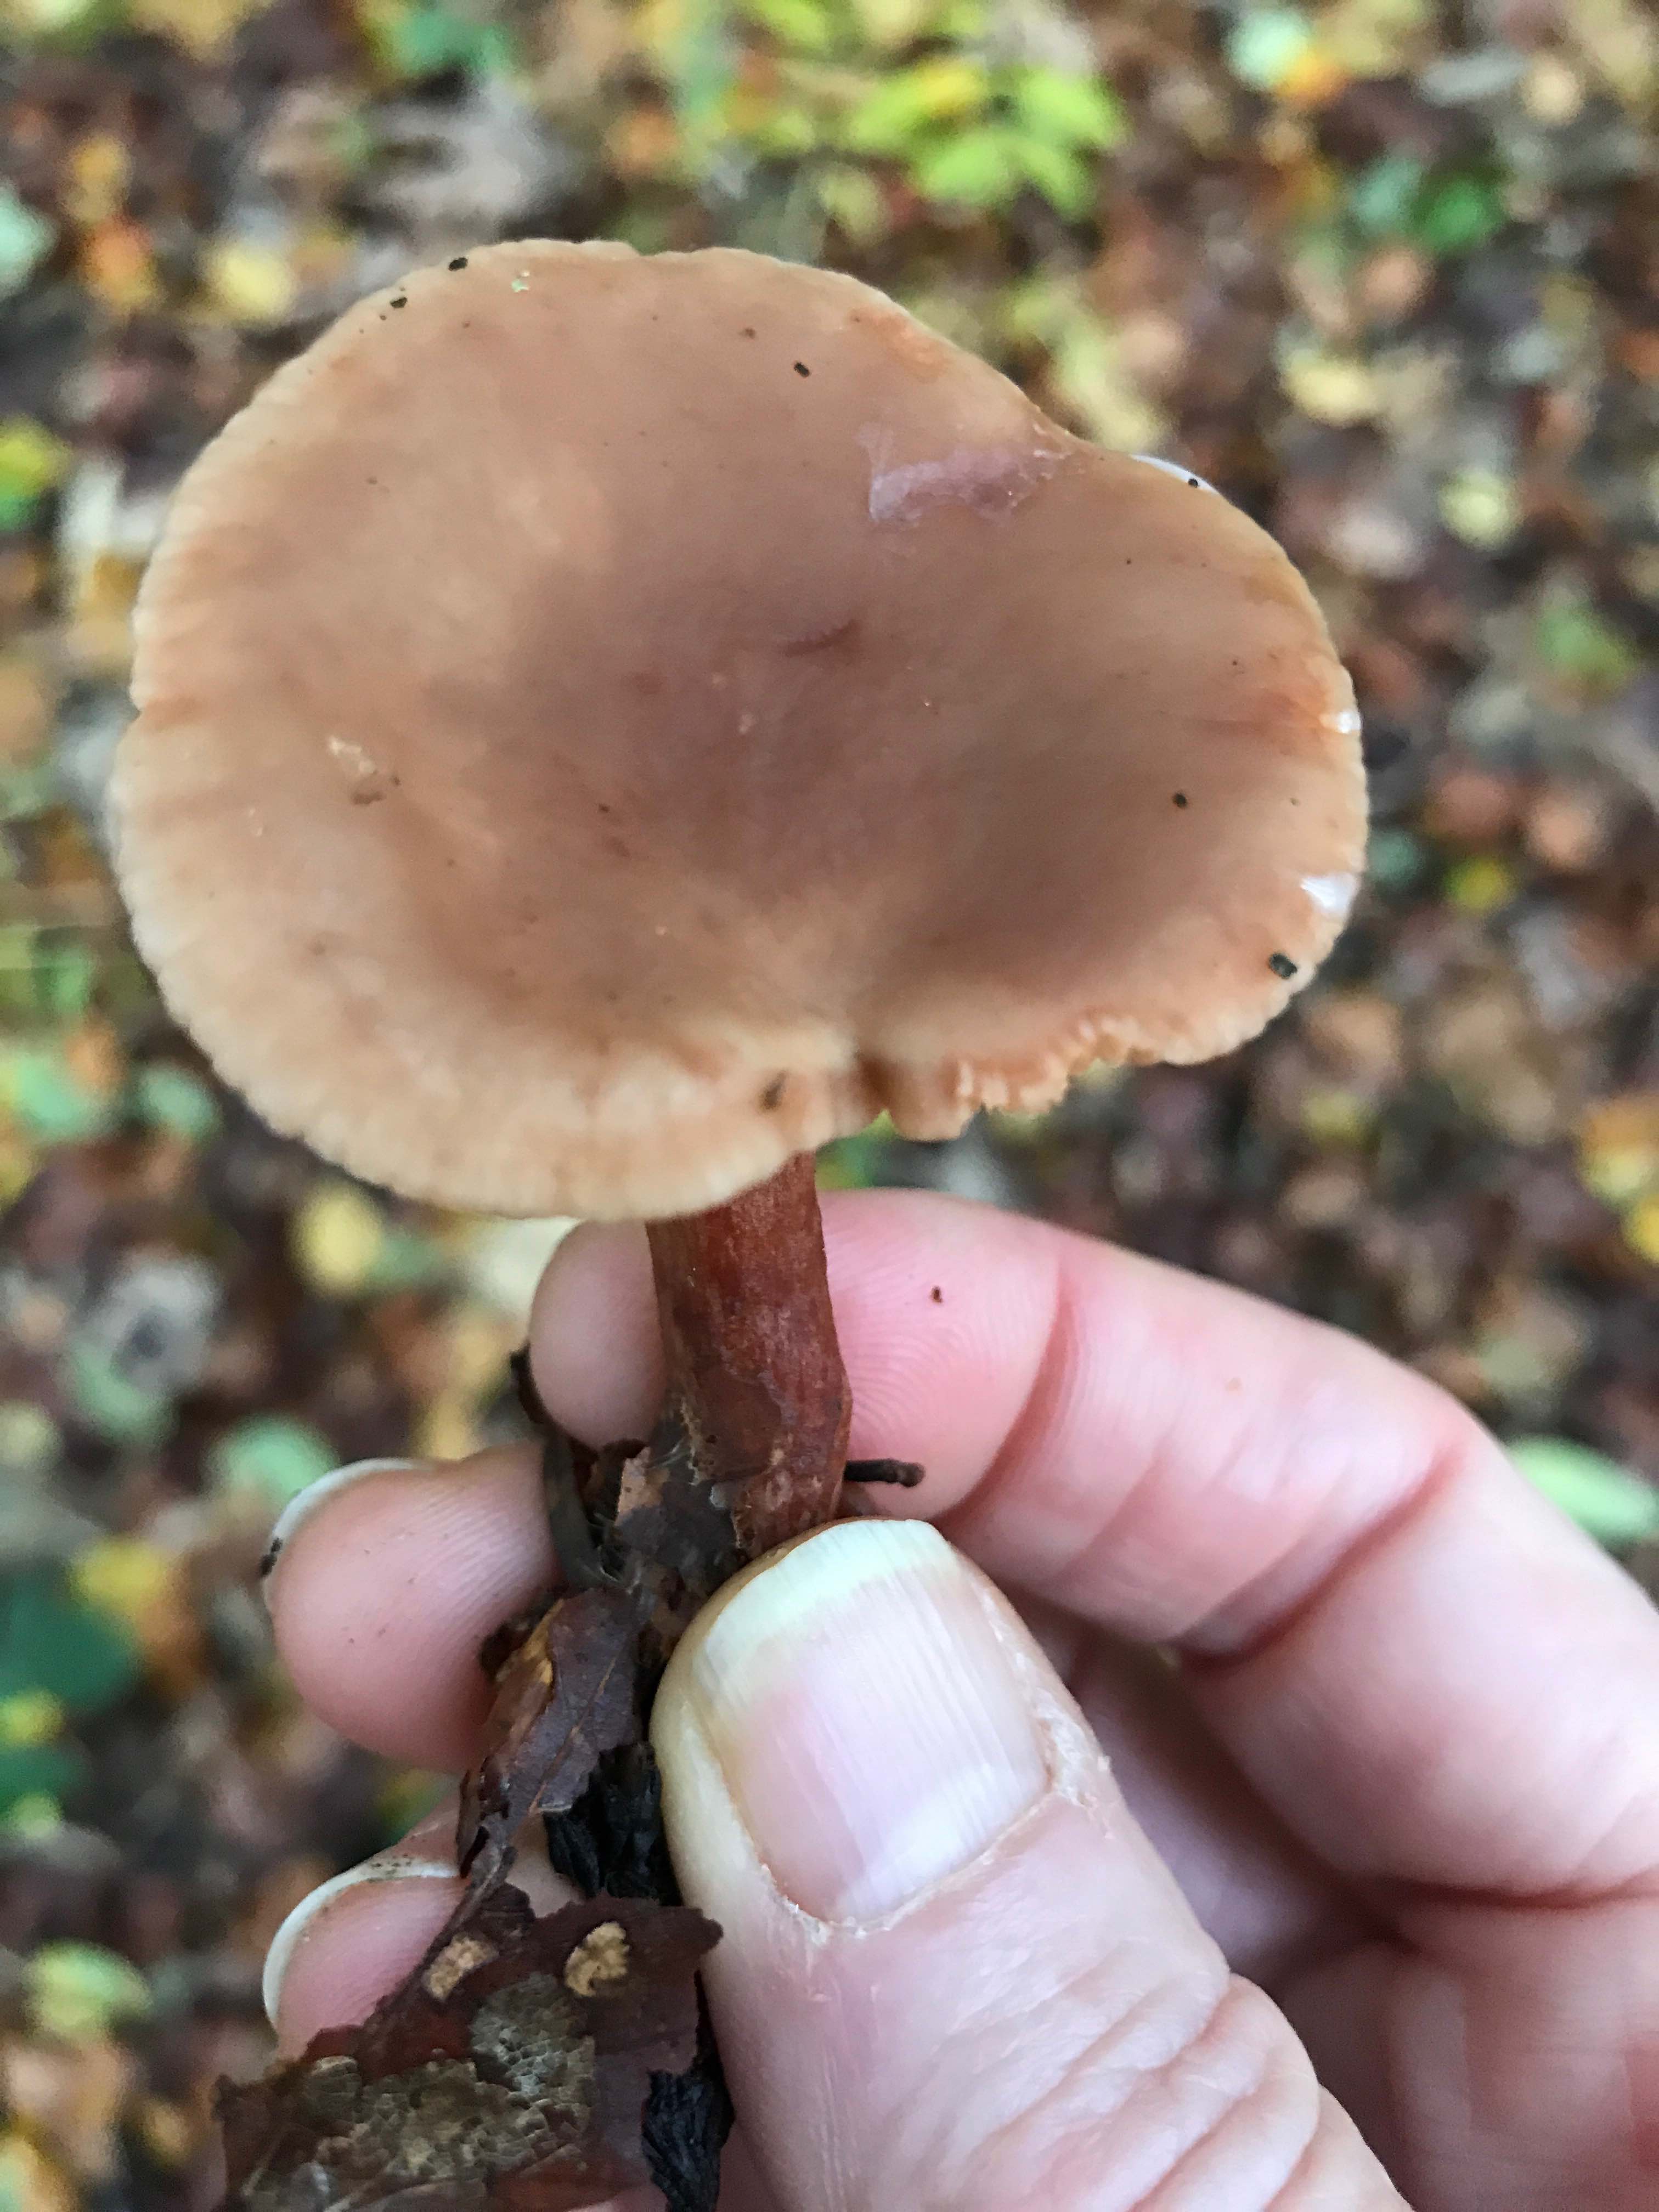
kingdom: Fungi
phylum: Basidiomycota
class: Agaricomycetes
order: Russulales
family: Russulaceae
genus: Lactarius
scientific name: Lactarius subdulcis
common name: sødlig mælkehat
